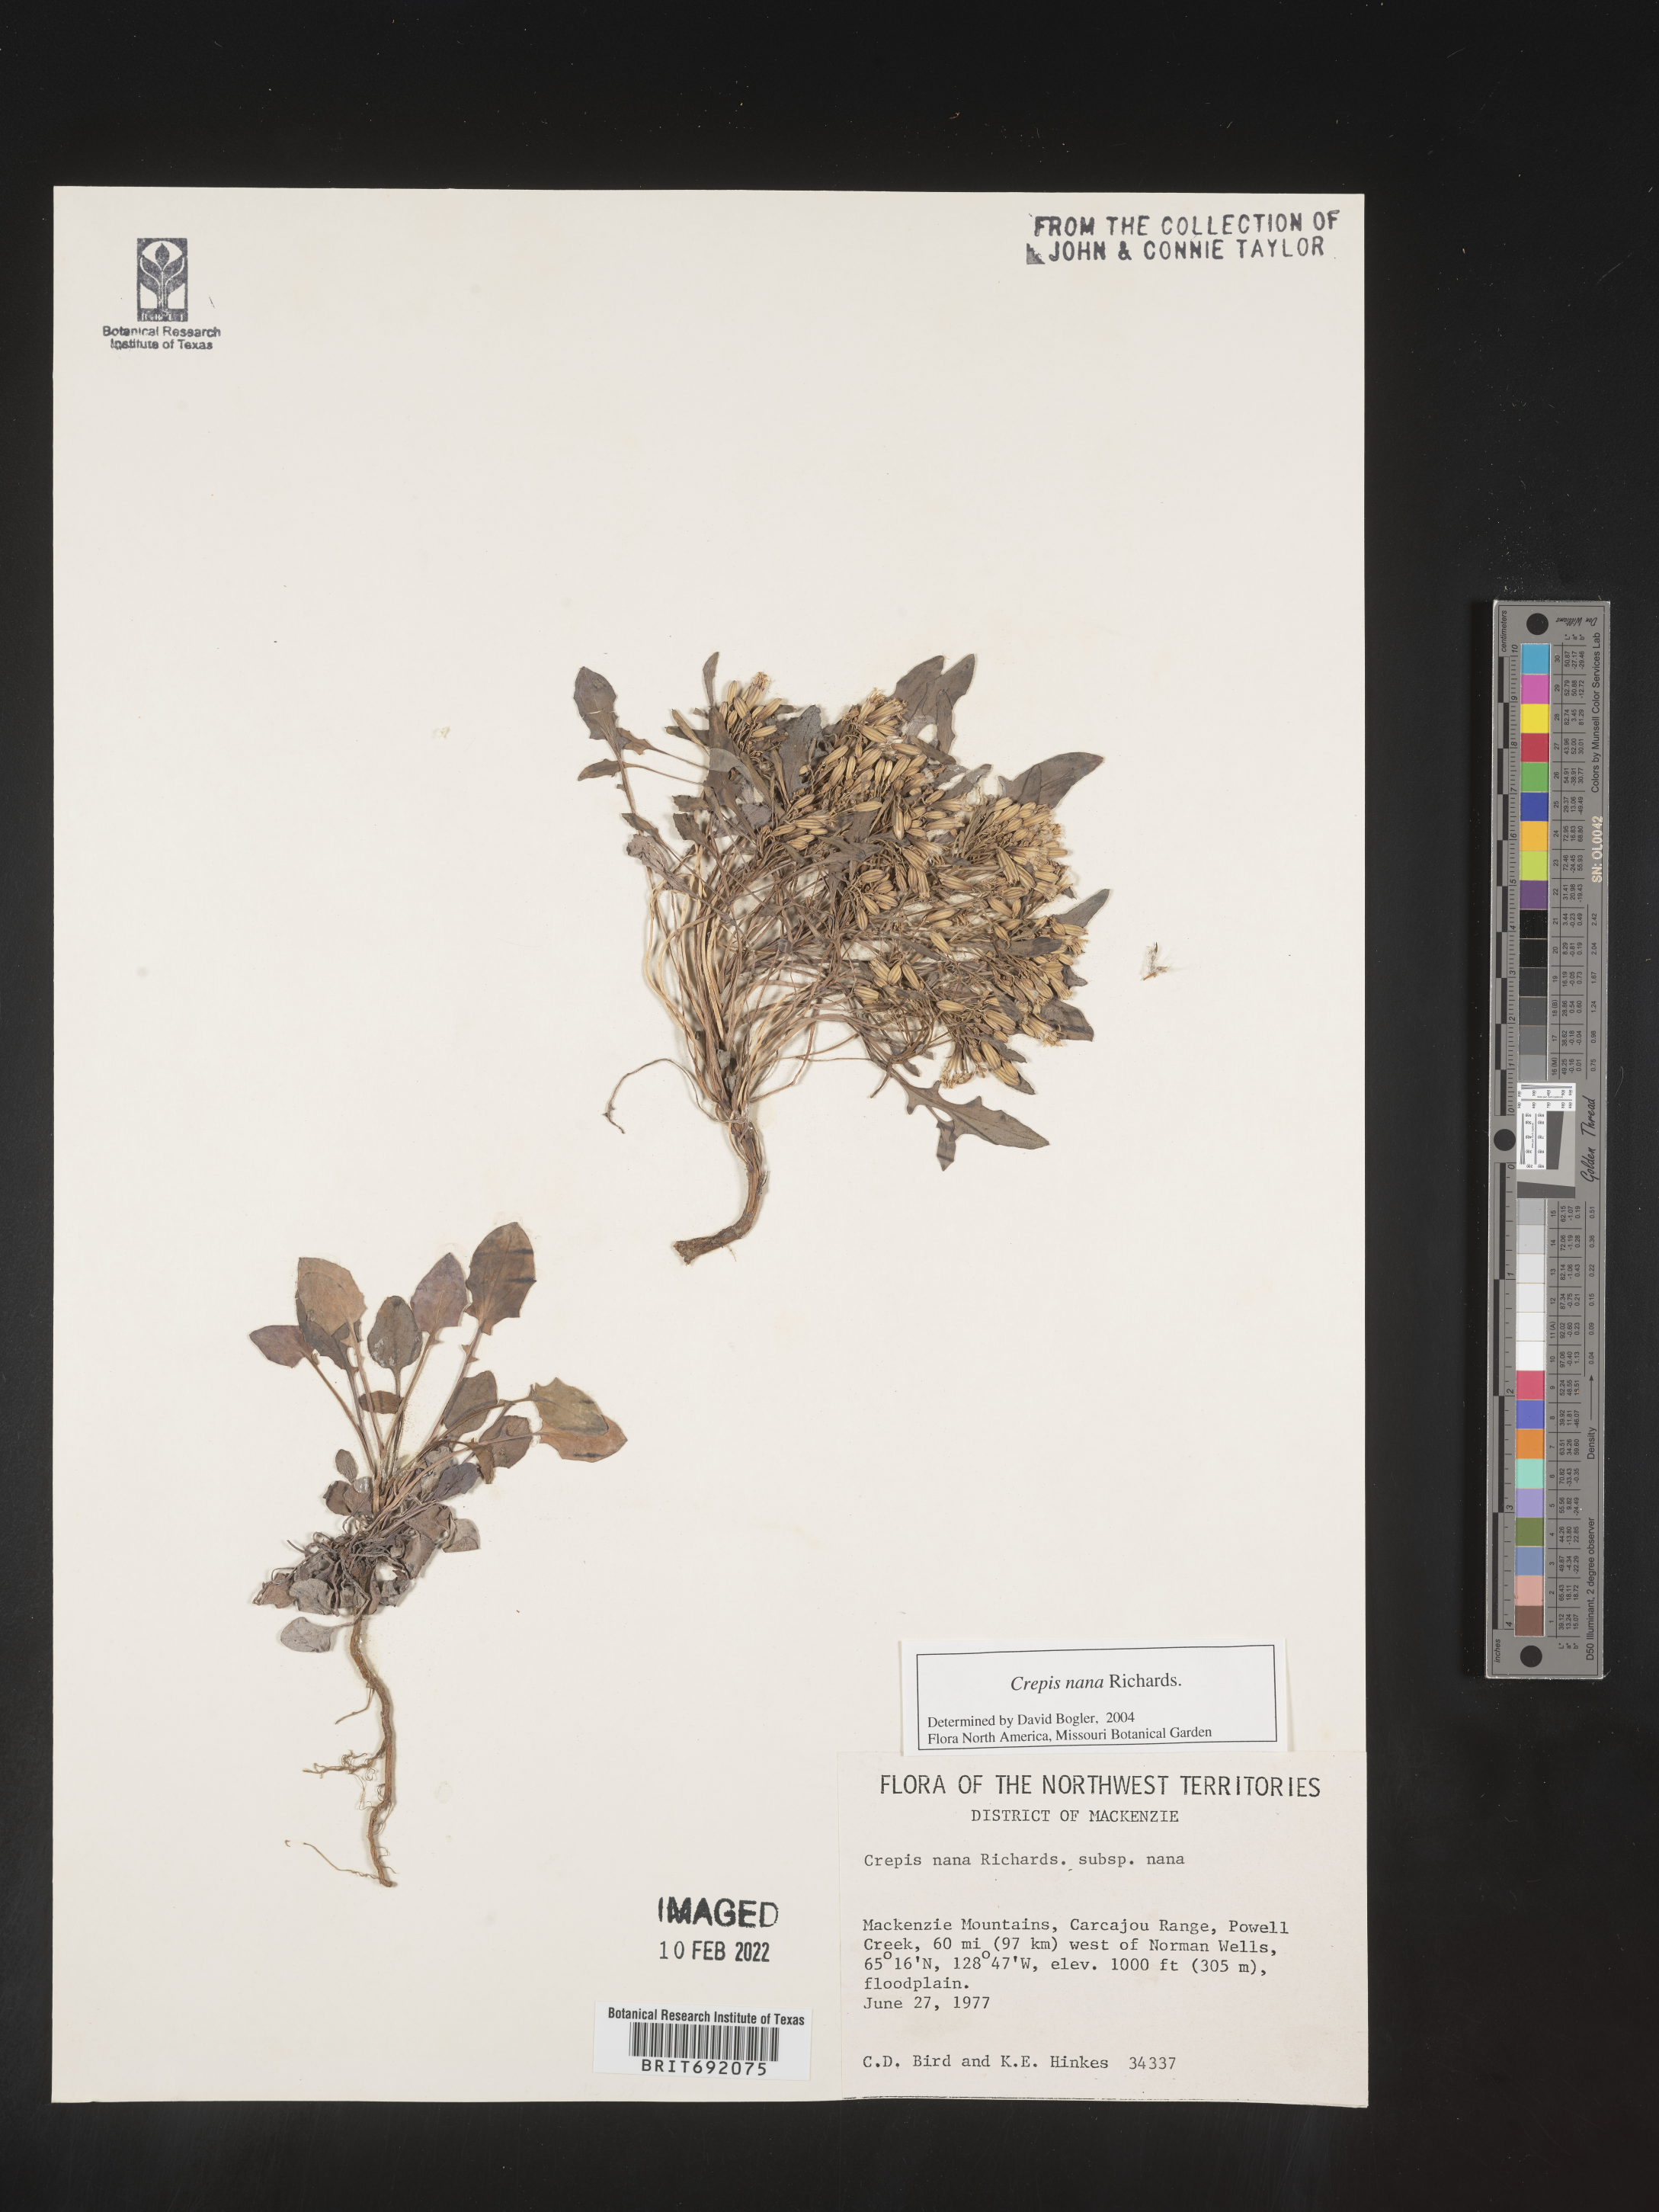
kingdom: Plantae
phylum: Tracheophyta
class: Magnoliopsida
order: Asterales
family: Asteraceae
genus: Crepis
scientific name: Crepis
